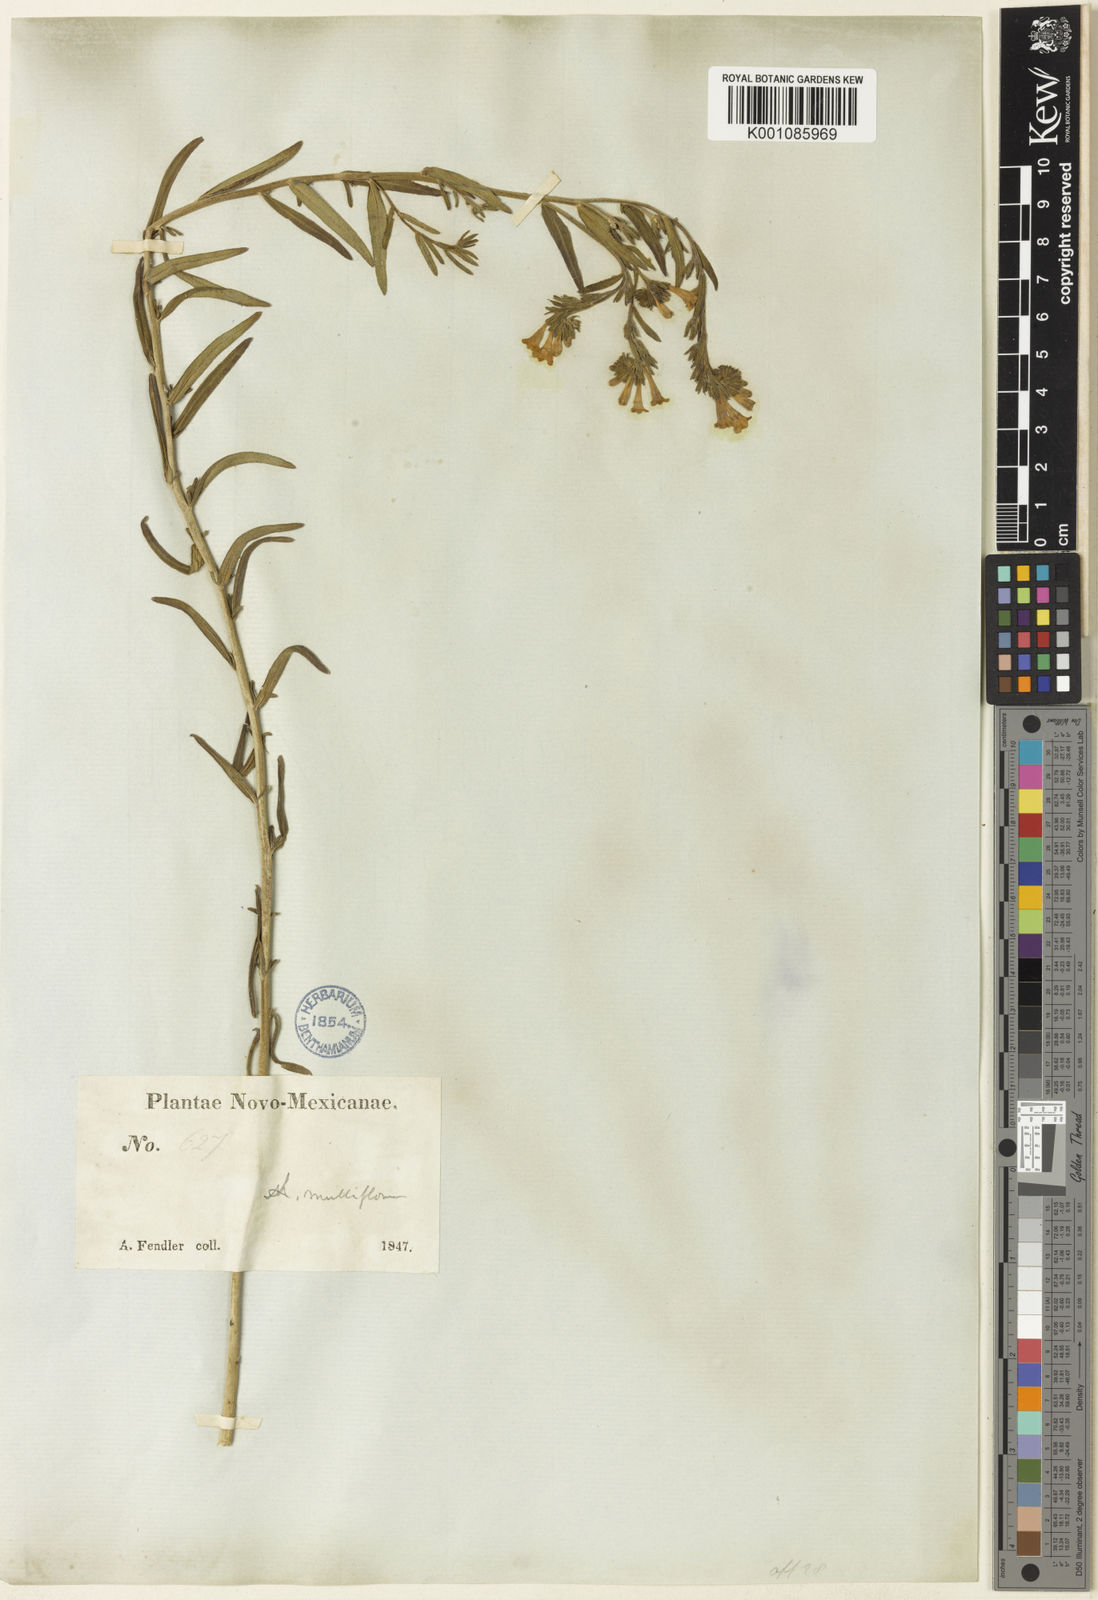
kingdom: Plantae
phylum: Tracheophyta
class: Magnoliopsida
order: Boraginales
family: Boraginaceae
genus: Lithospermum
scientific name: Lithospermum multiflorum
